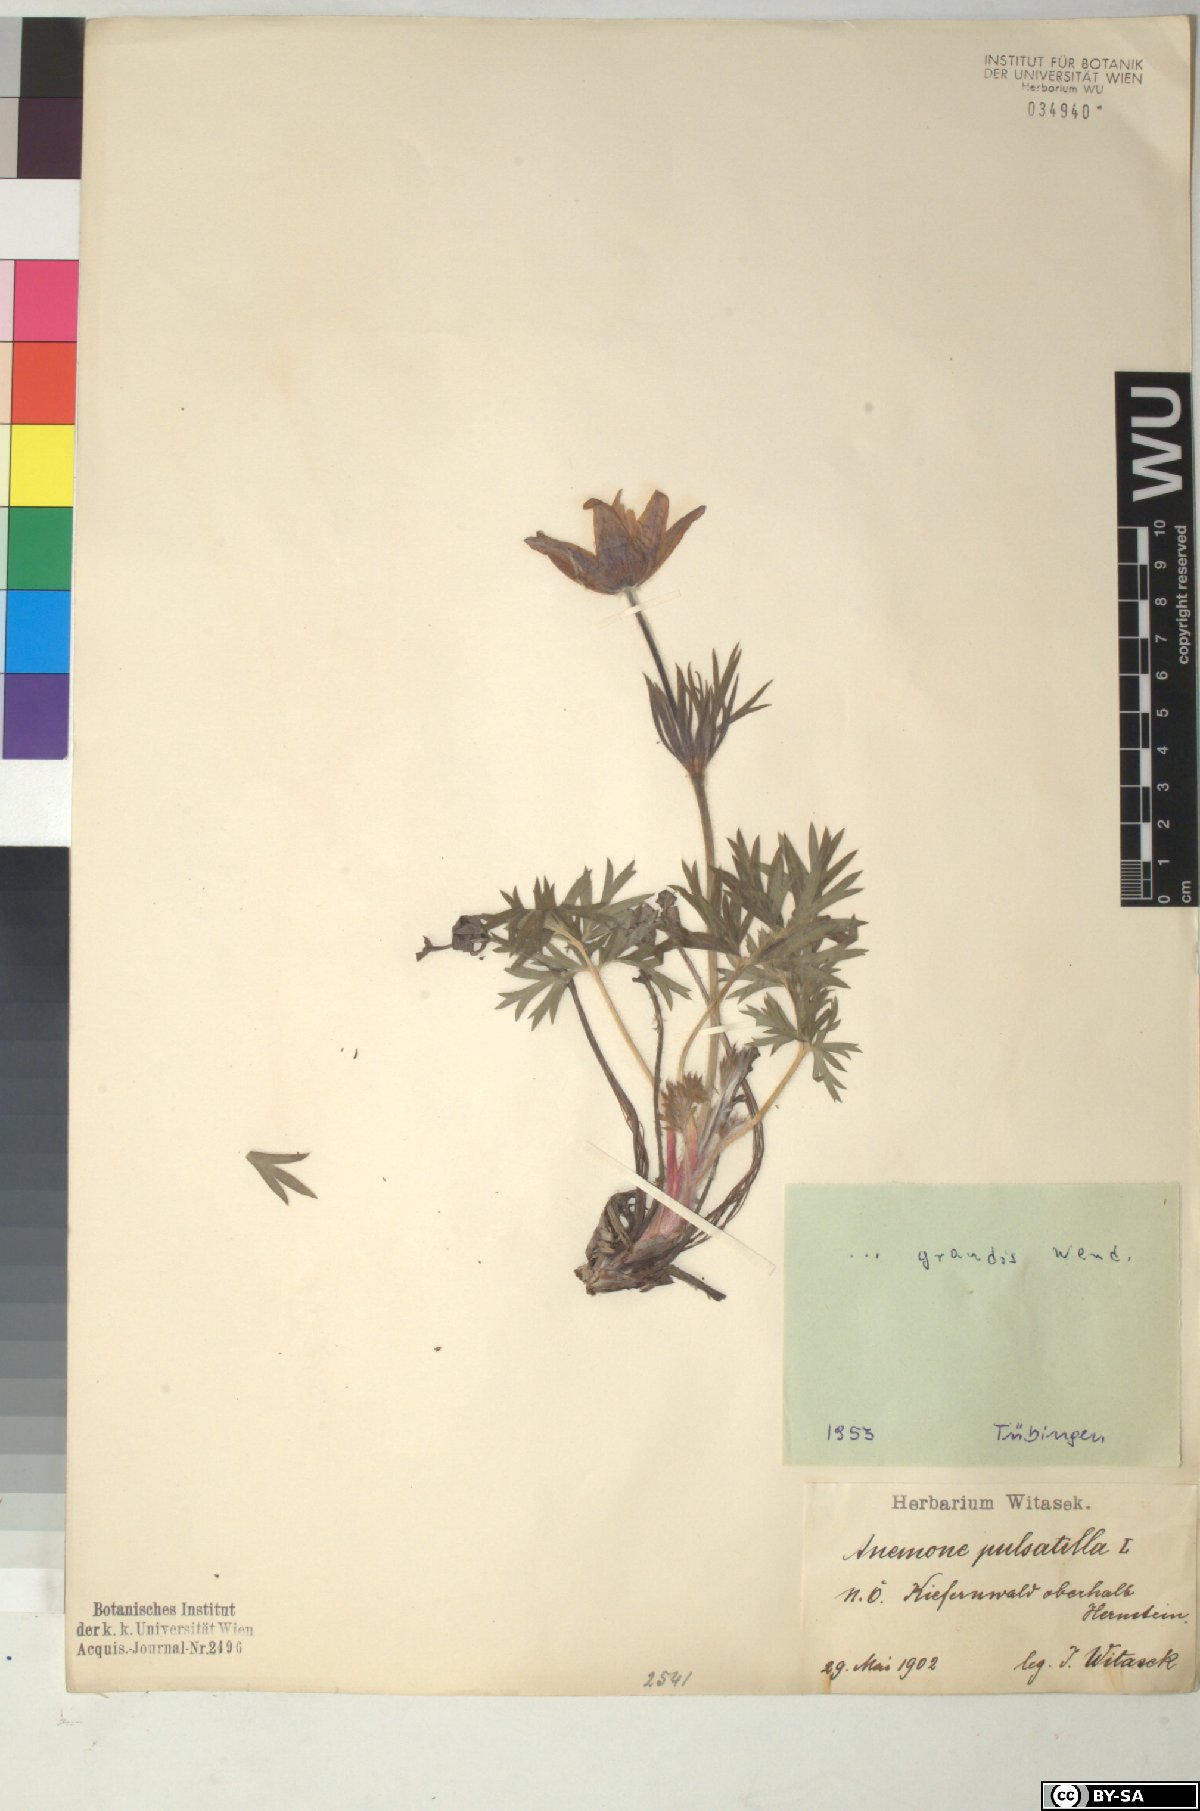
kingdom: Plantae
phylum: Tracheophyta
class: Magnoliopsida
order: Ranunculales
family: Ranunculaceae
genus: Pulsatilla
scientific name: Pulsatilla grandis
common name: Greater pasque flower
